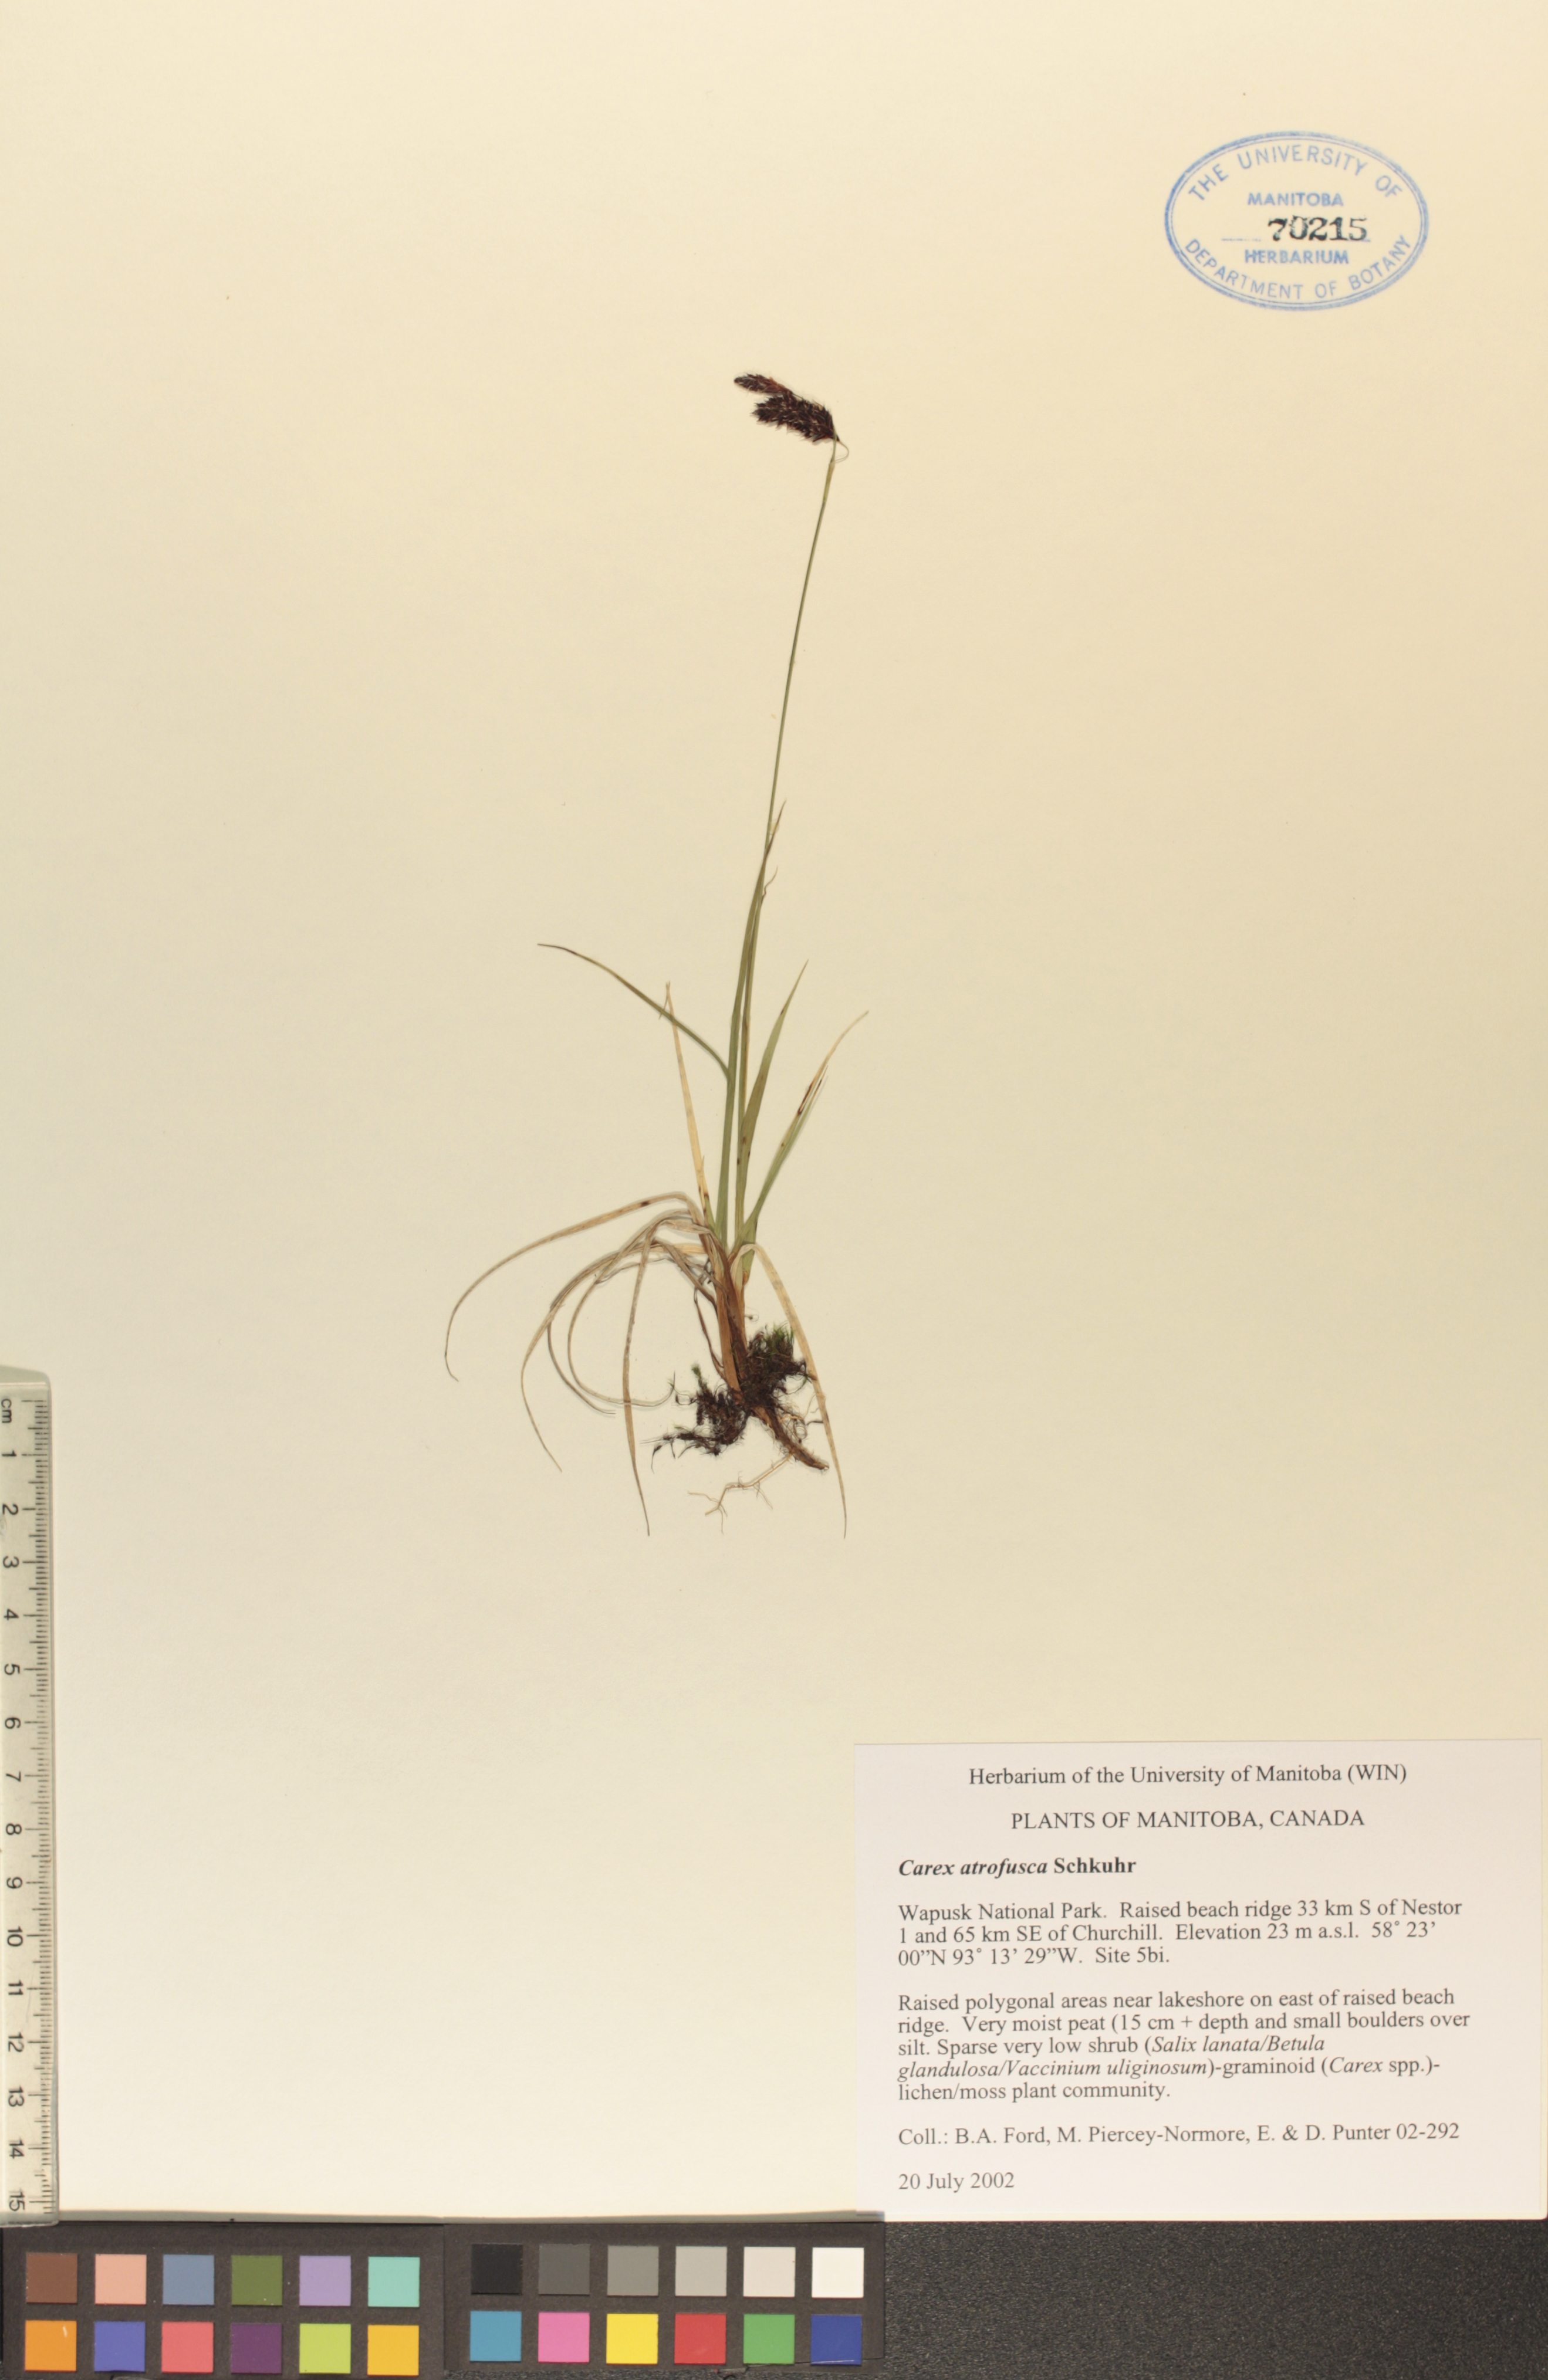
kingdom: Plantae
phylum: Tracheophyta
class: Liliopsida
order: Poales
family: Cyperaceae
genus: Carex
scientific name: Carex pichinchensis
